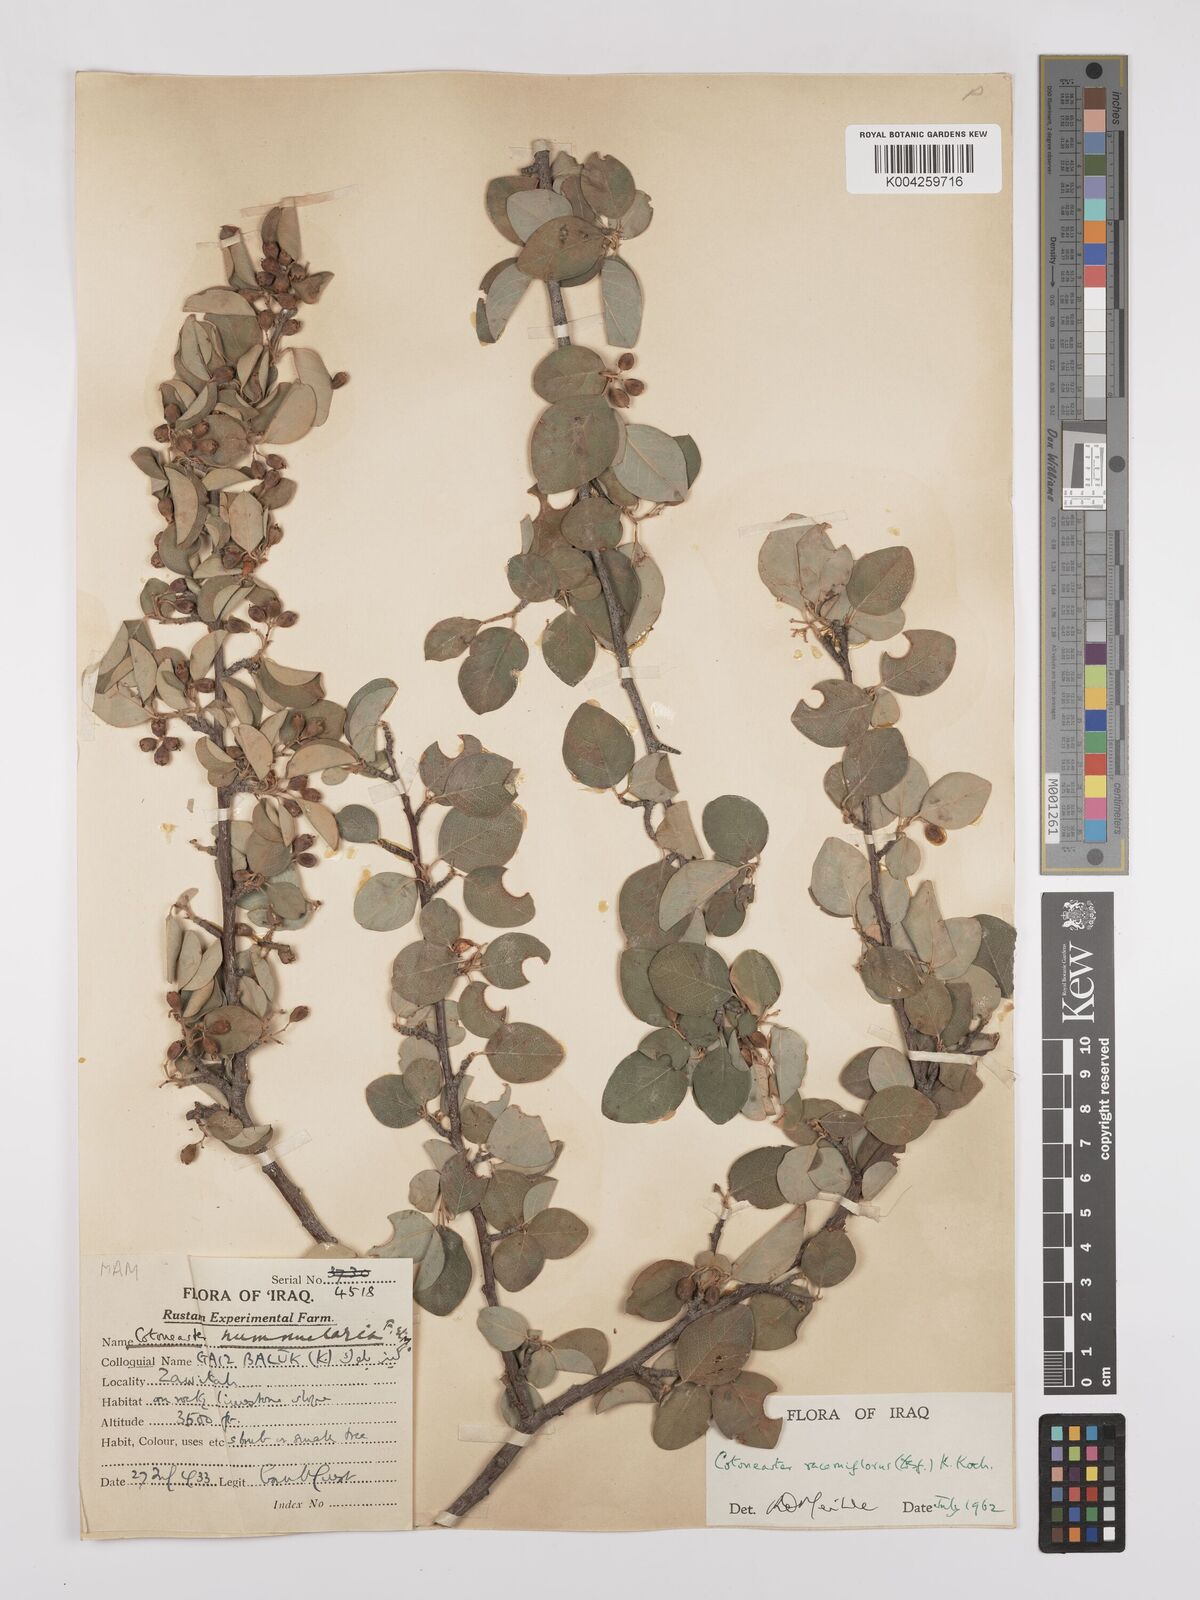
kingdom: Plantae
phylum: Tracheophyta
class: Magnoliopsida
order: Rosales
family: Rosaceae
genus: Cotoneaster
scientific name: Cotoneaster racemiflorus
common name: Cluster-flower cotoneaster
